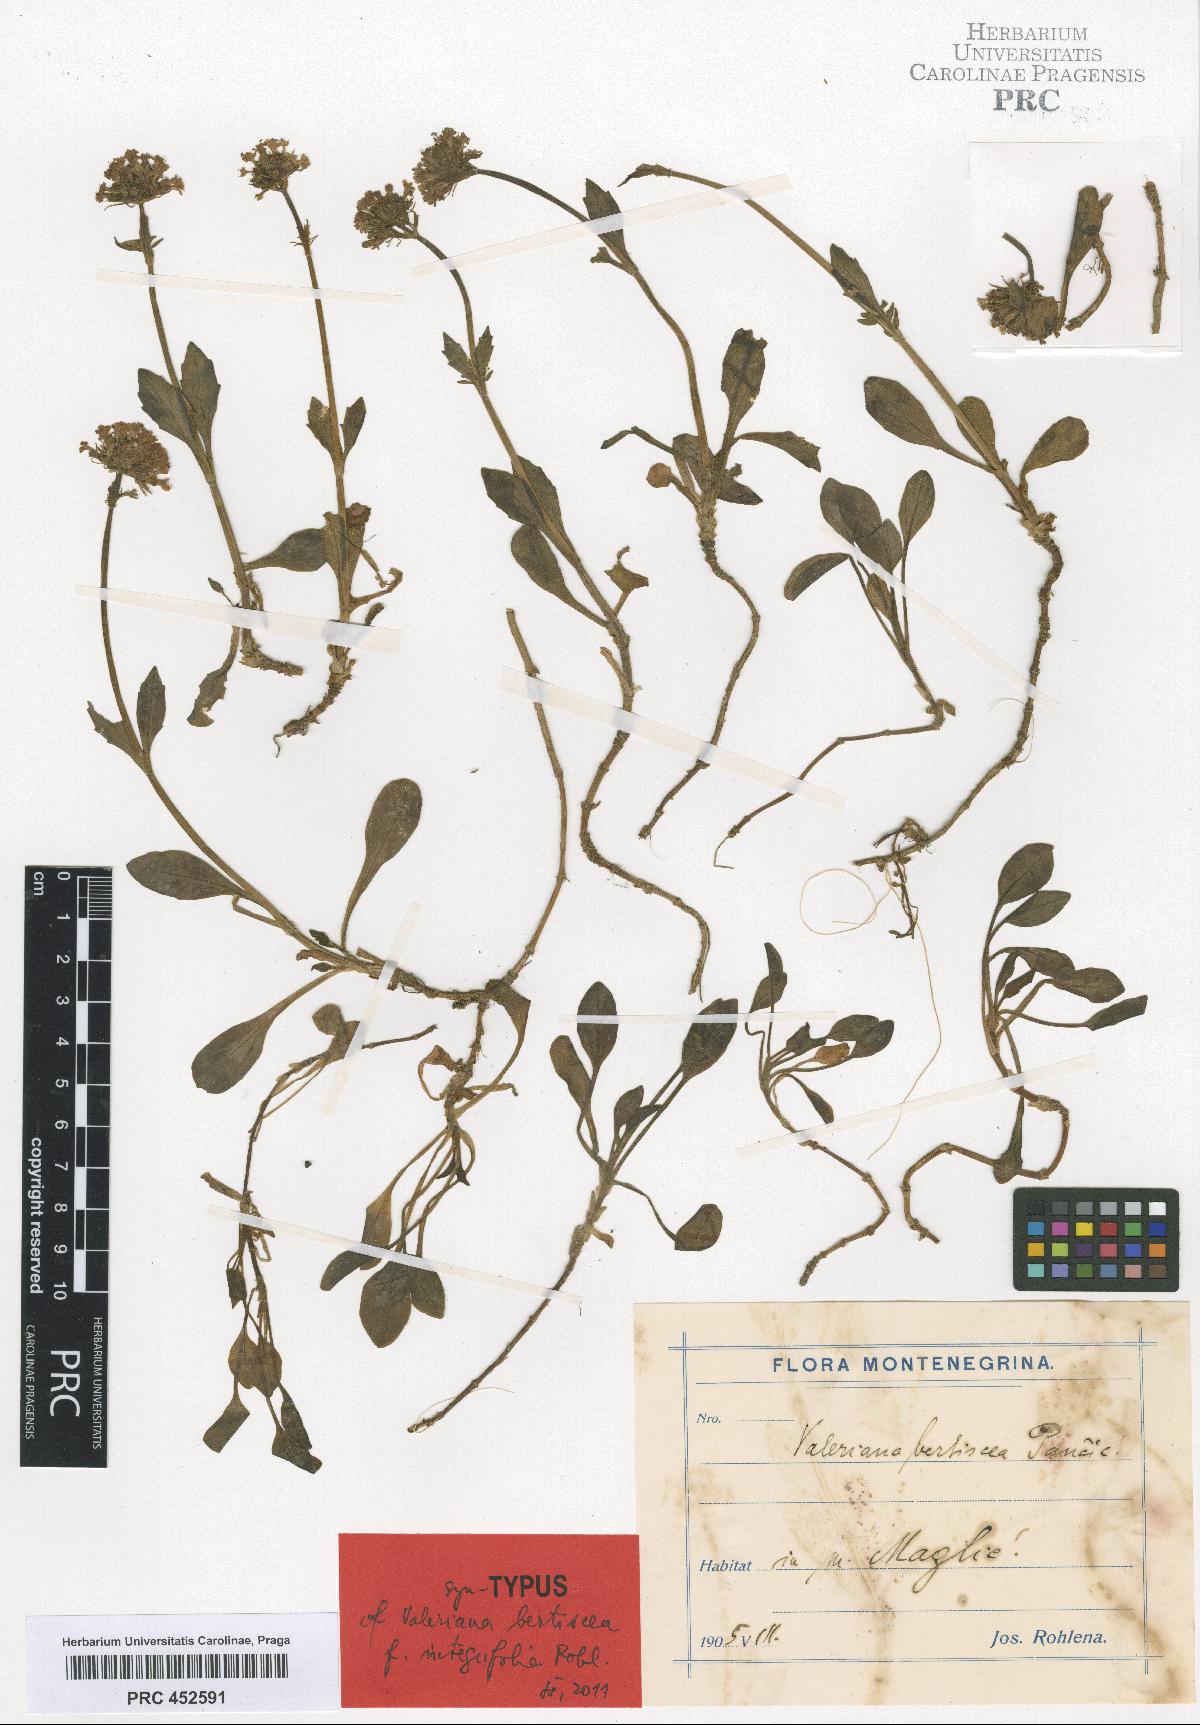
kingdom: Plantae
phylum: Tracheophyta
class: Magnoliopsida
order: Dipsacales
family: Caprifoliaceae
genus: Valeriana
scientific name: Valeriana bertiscea
